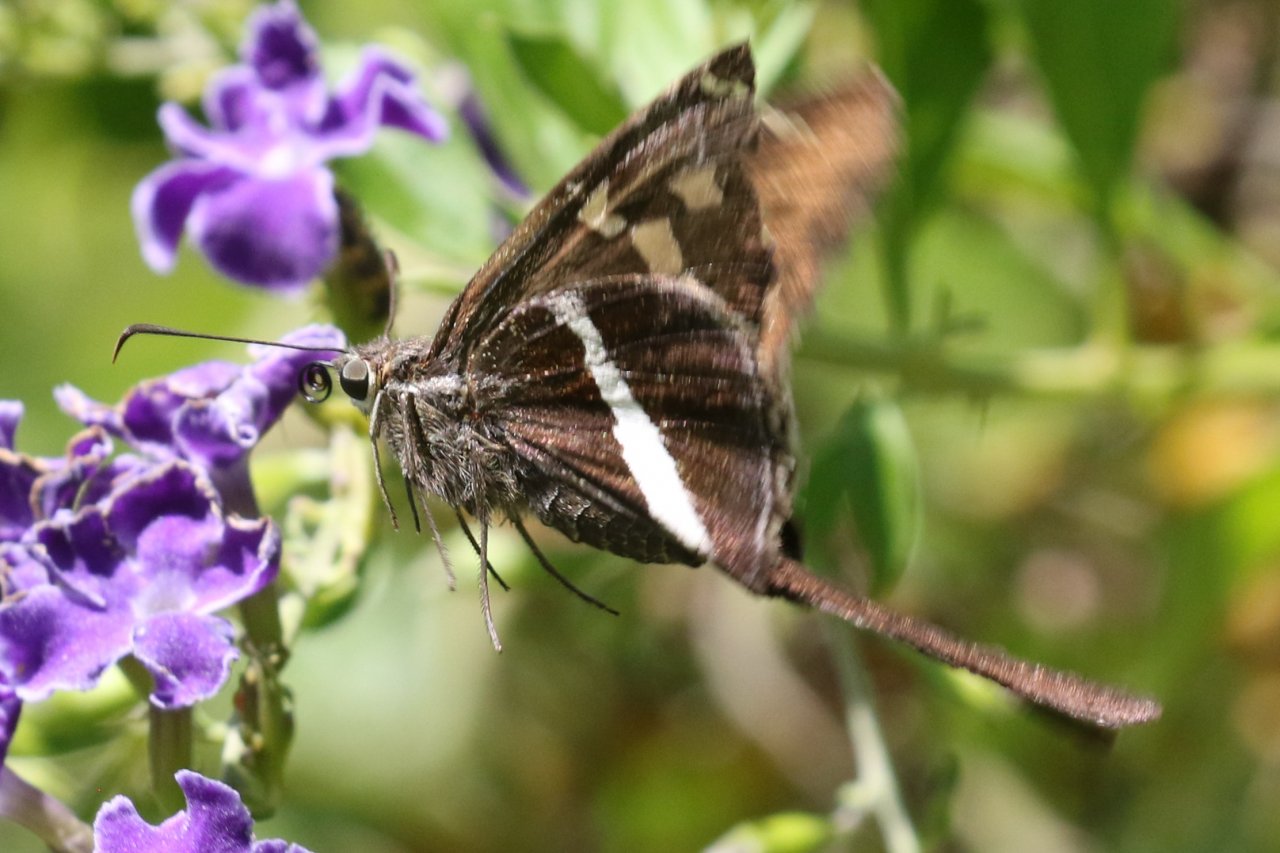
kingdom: Animalia
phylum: Arthropoda
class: Insecta
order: Lepidoptera
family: Hesperiidae
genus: Chioides
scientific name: Chioides catillus
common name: White-striped Longtail
